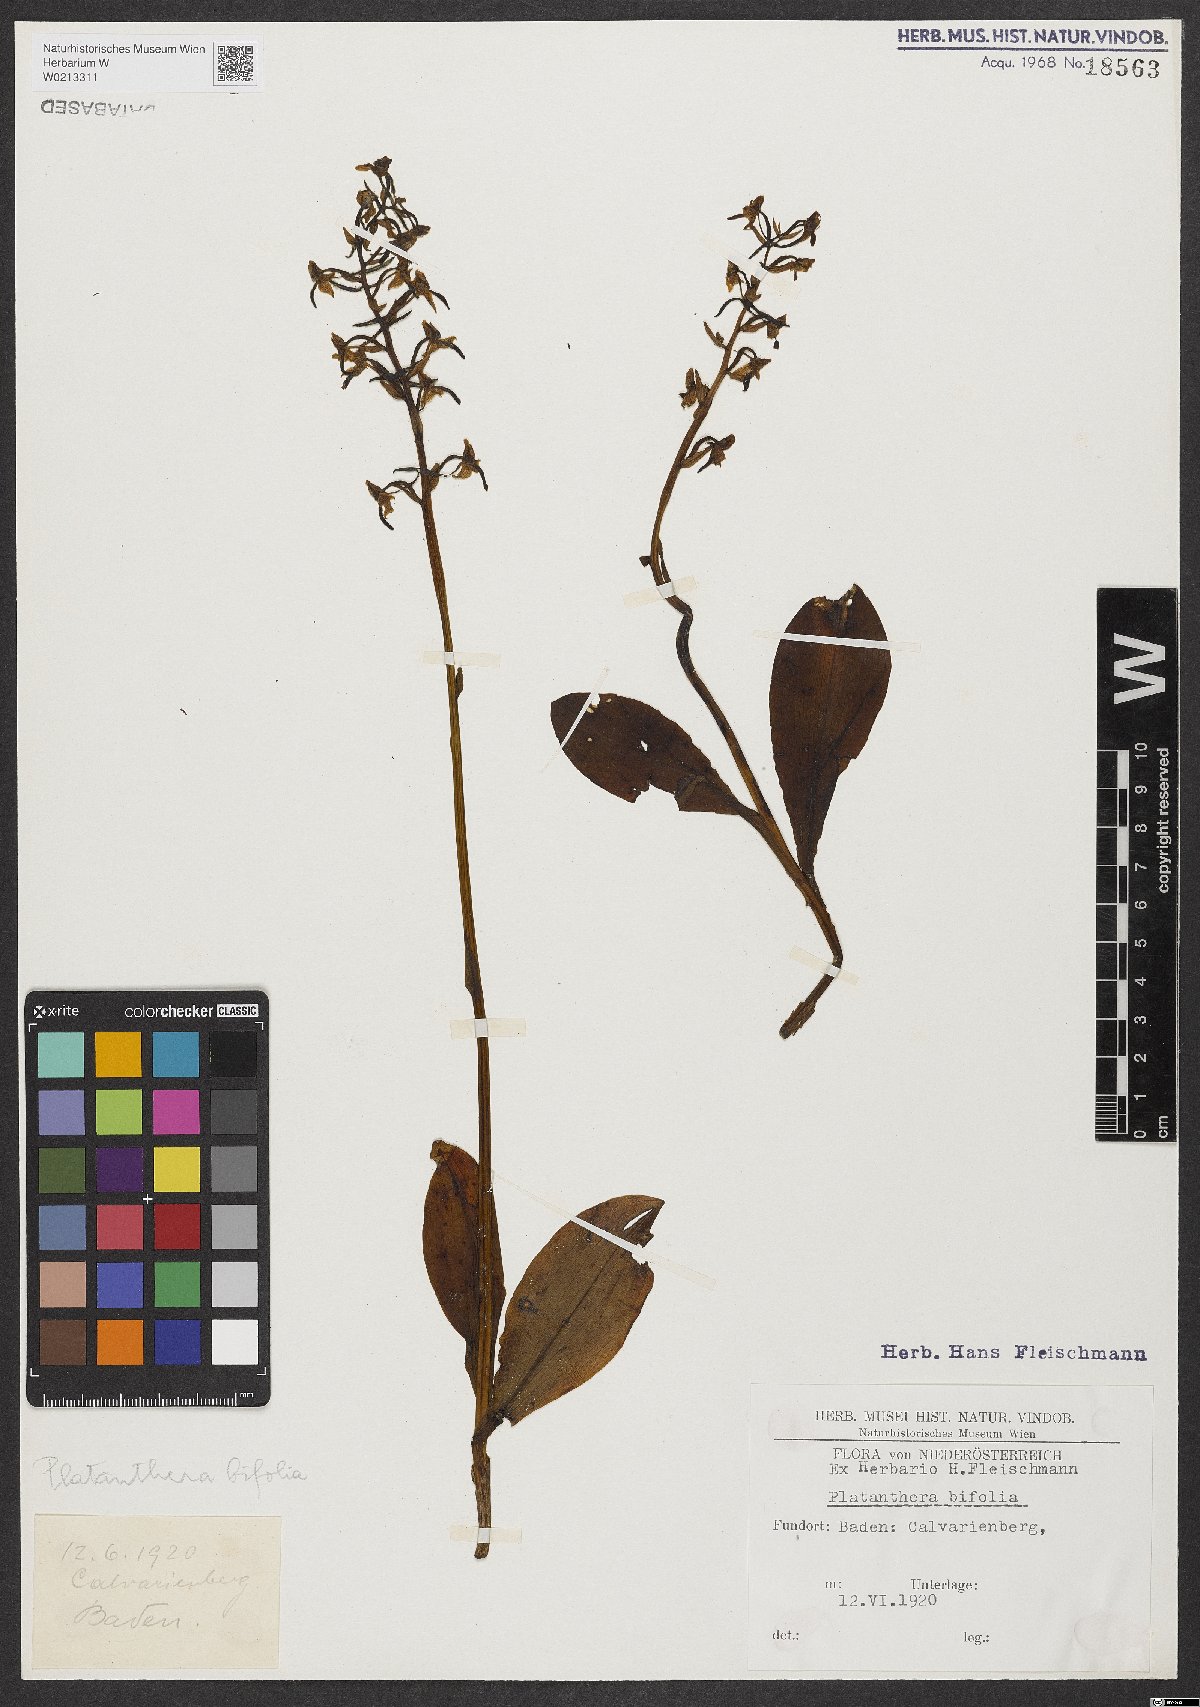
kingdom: Plantae
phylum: Tracheophyta
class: Liliopsida
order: Asparagales
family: Orchidaceae
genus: Platanthera
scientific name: Platanthera bifolia
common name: Lesser butterfly-orchid
